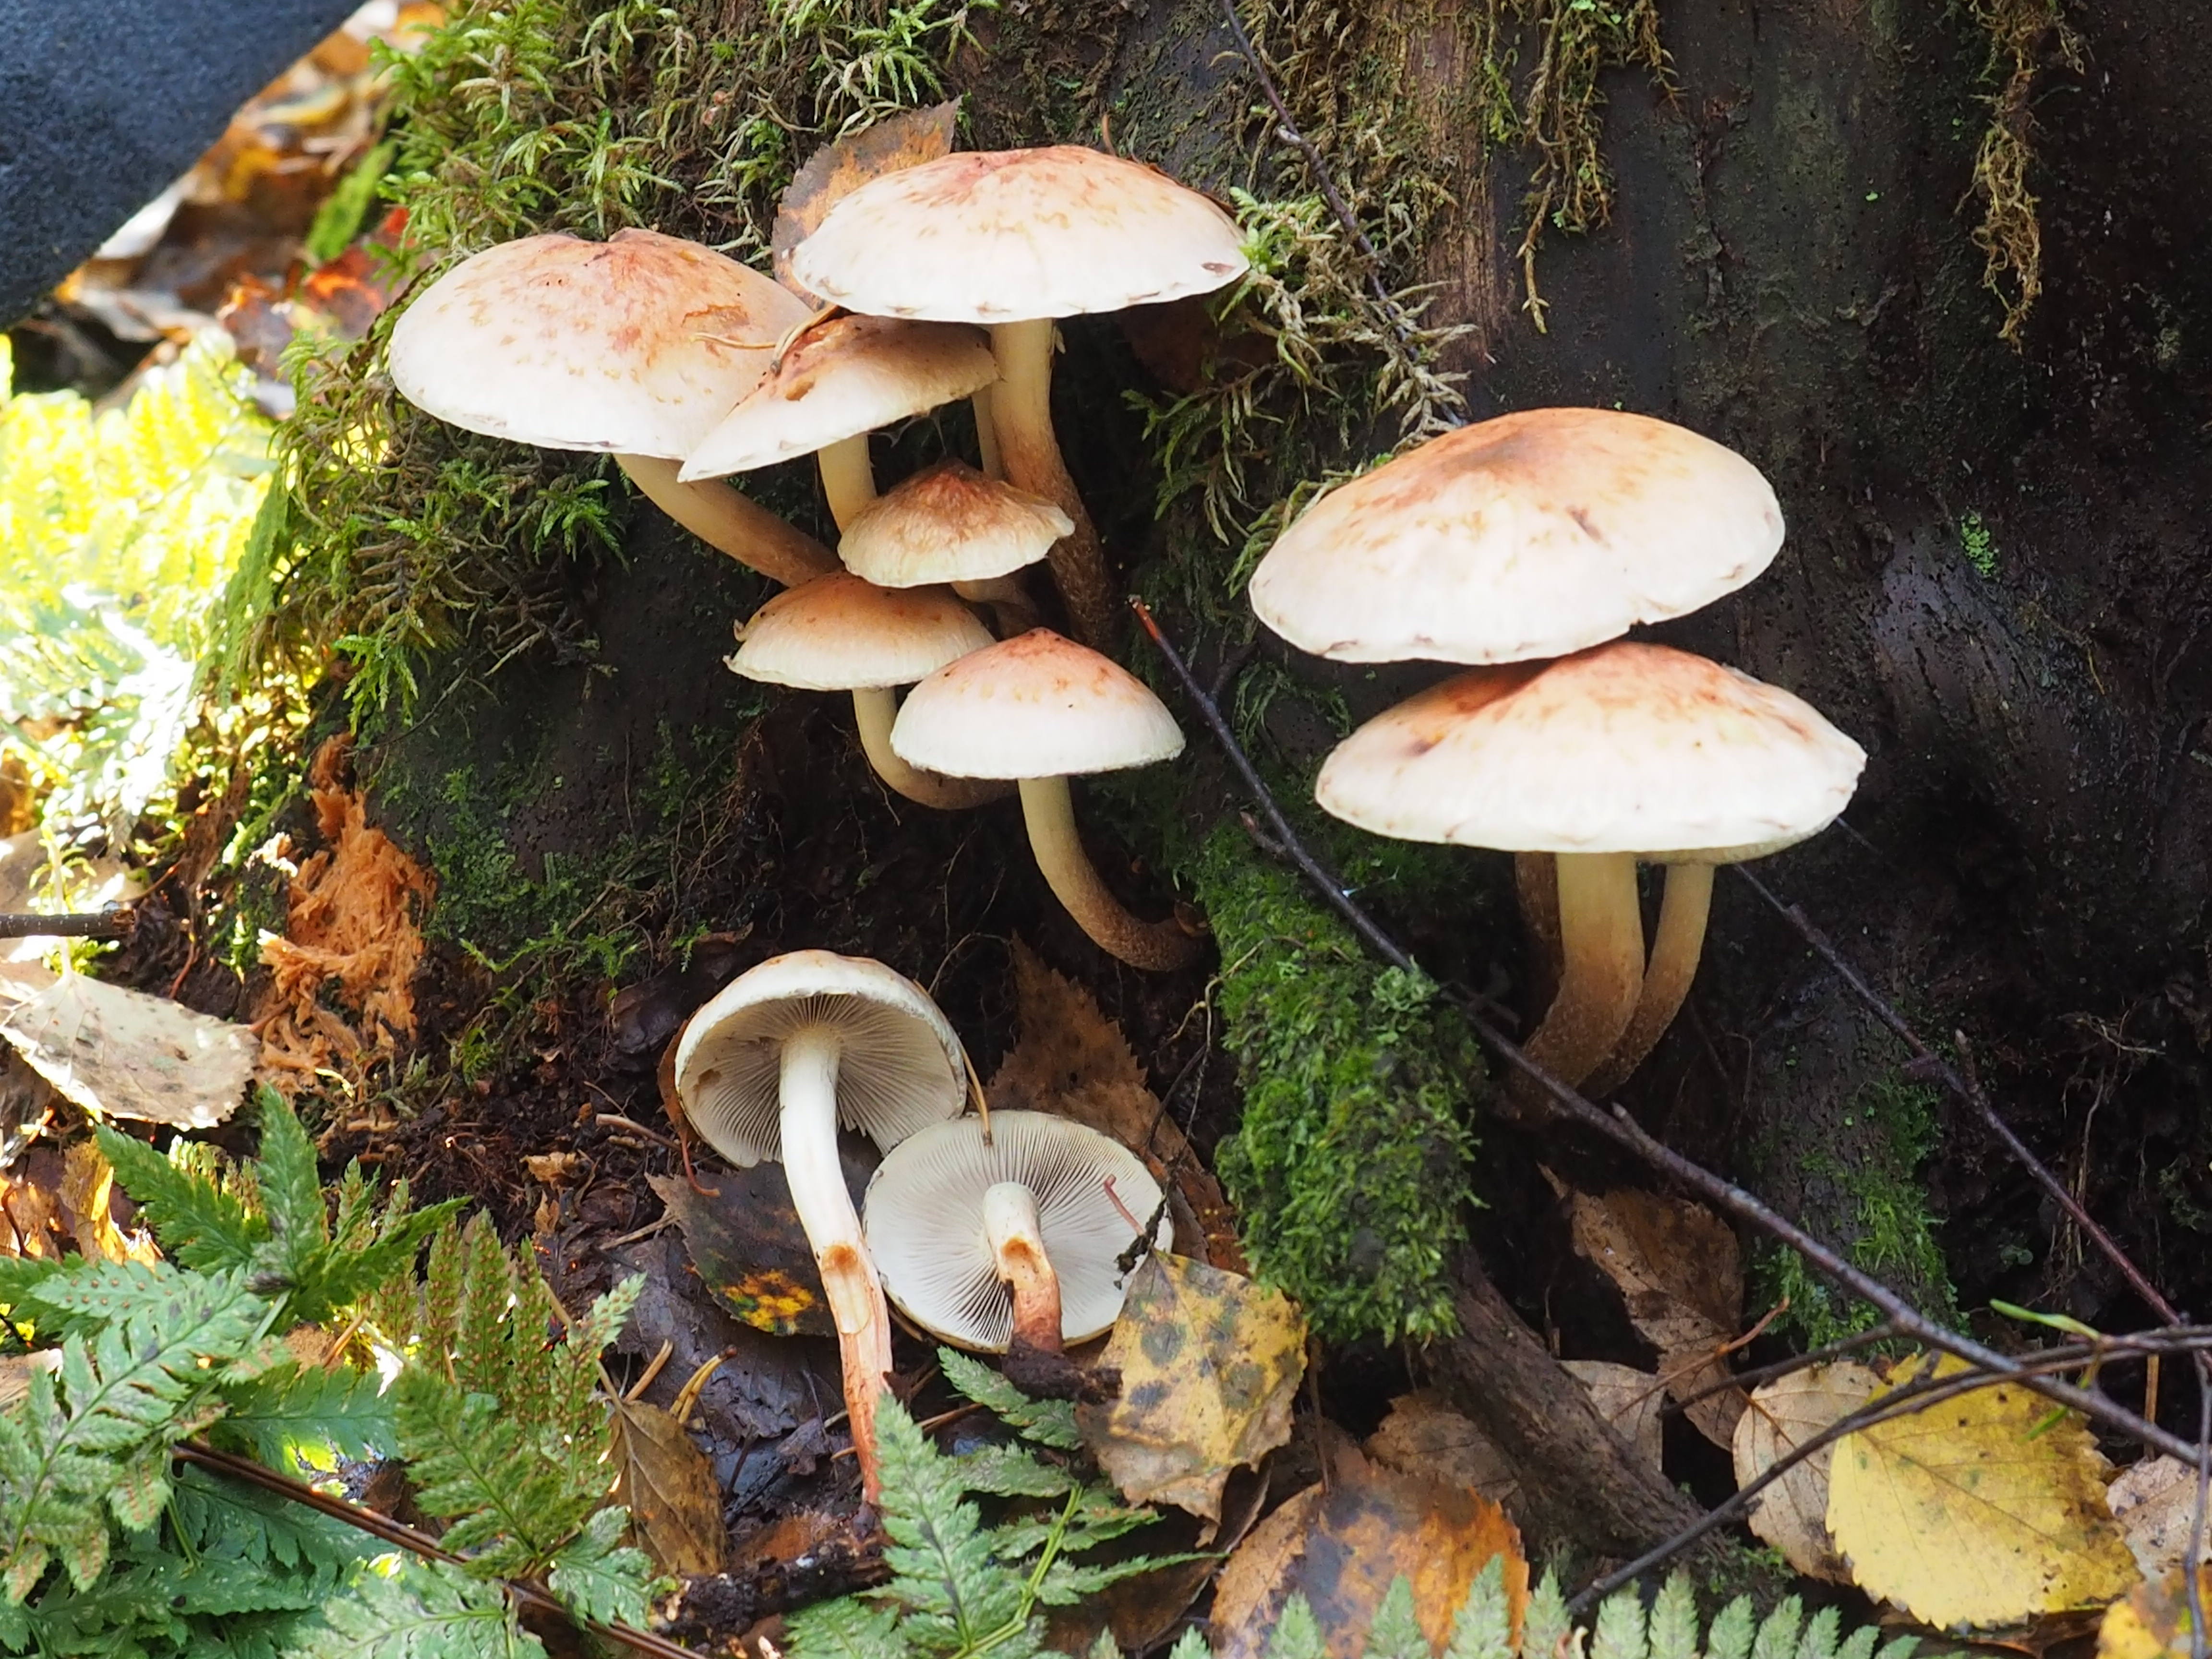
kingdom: Fungi
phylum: Basidiomycota
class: Agaricomycetes
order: Agaricales
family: Strophariaceae
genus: Hypholoma
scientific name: Hypholoma lateritium
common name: Brick caps
